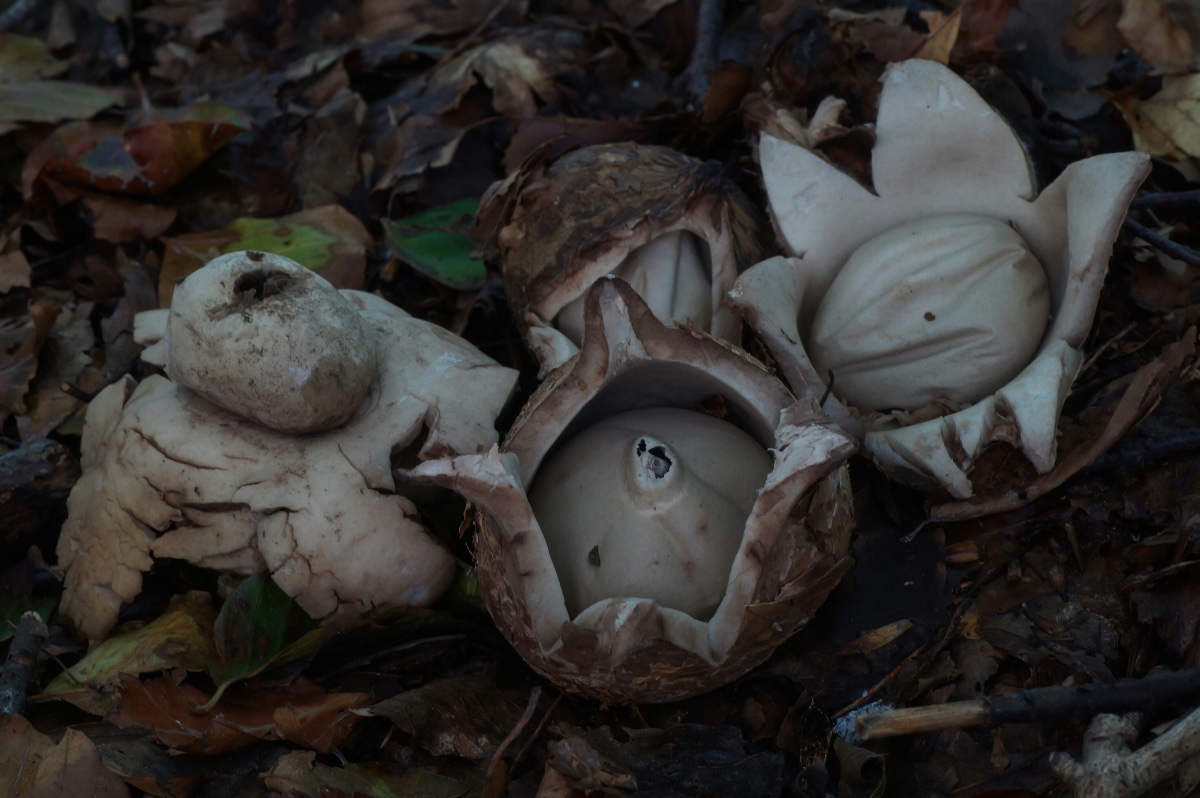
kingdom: Fungi
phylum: Basidiomycota
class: Agaricomycetes
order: Geastrales
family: Geastraceae
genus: Geastrum
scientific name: Geastrum michelianum
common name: kødet stjernebold
